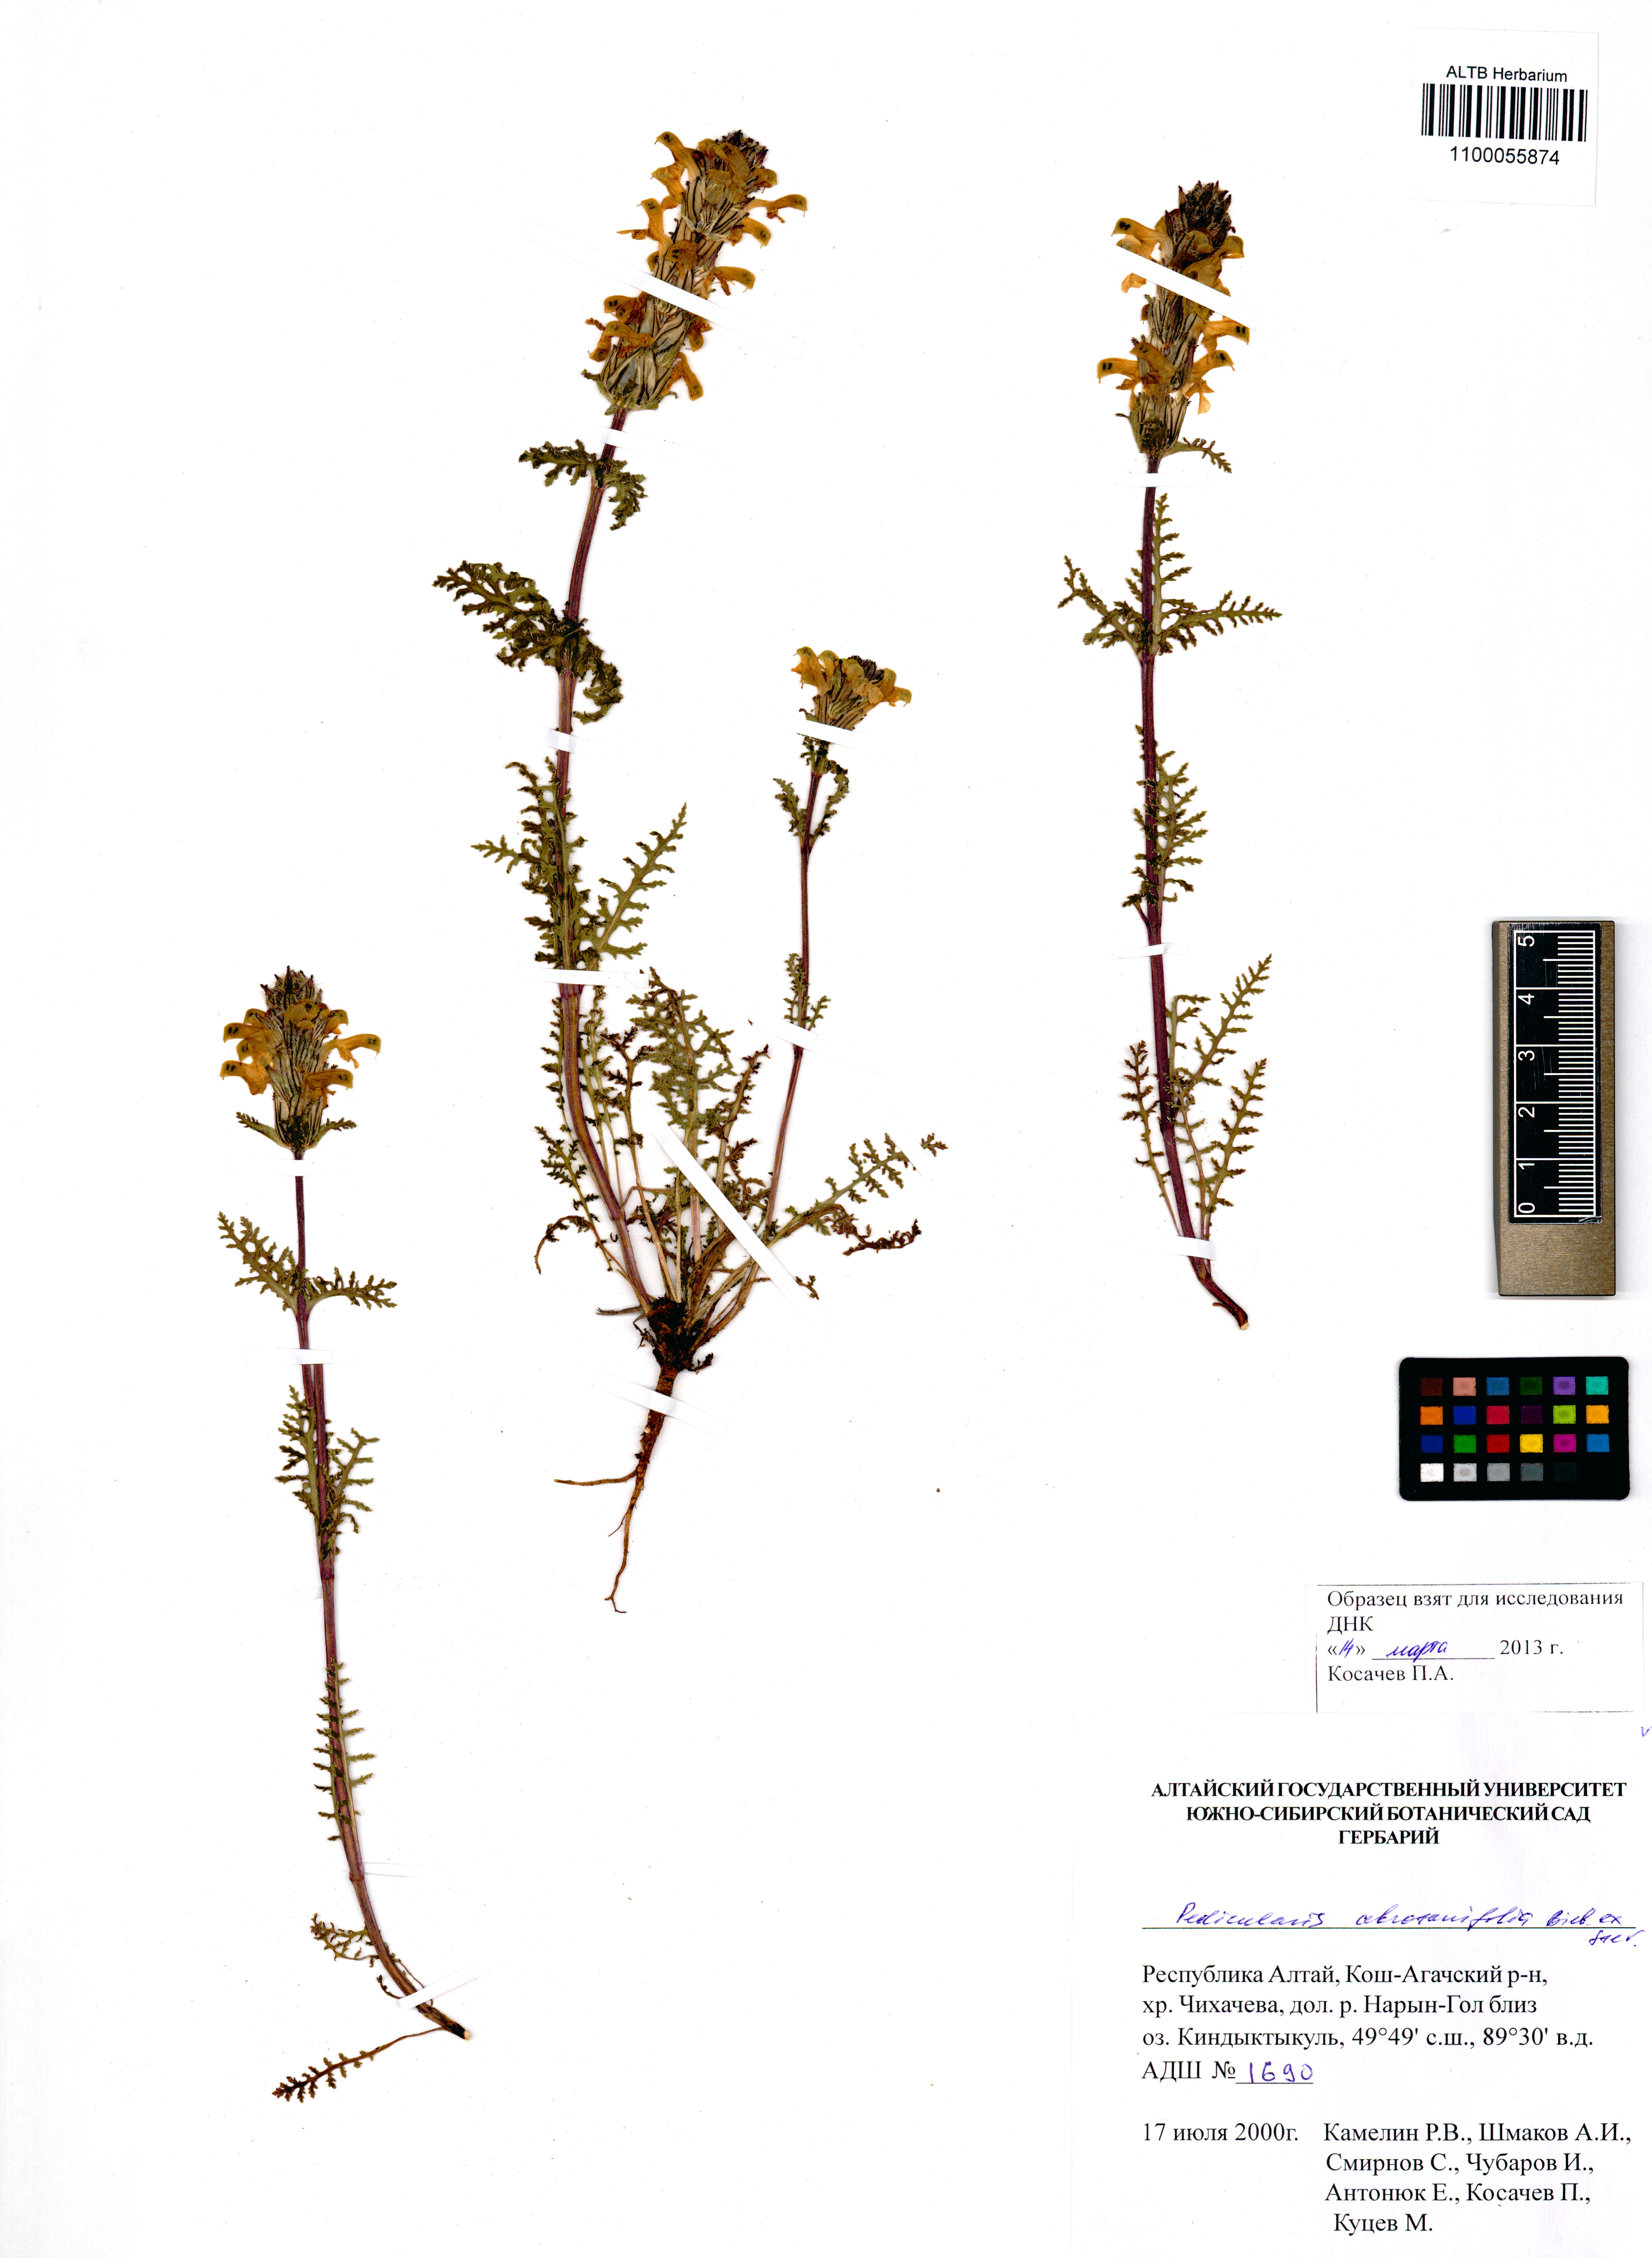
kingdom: Plantae
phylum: Tracheophyta
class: Magnoliopsida
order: Lamiales
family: Orobanchaceae
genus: Pedicularis
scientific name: Pedicularis abrotanifolia
